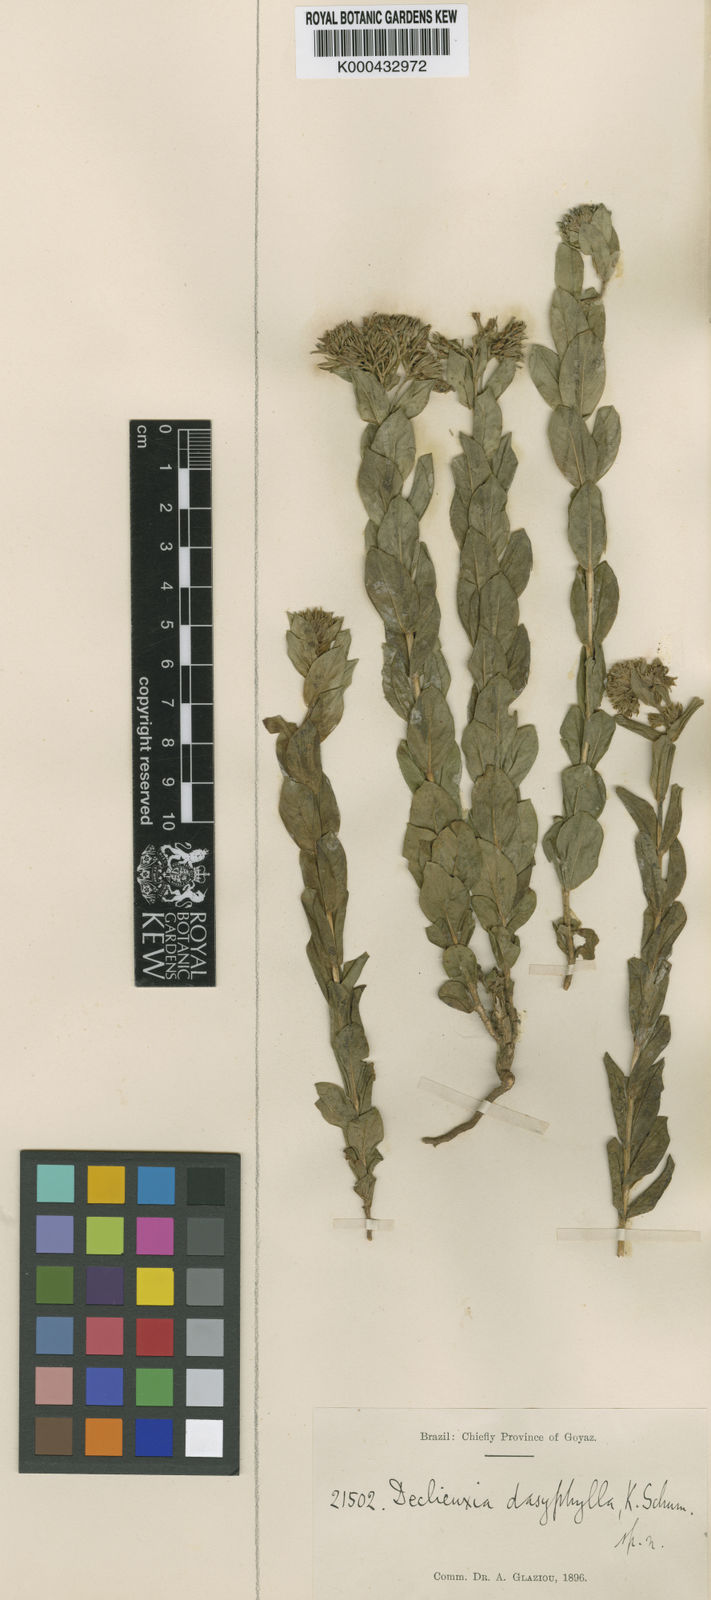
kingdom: Plantae
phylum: Tracheophyta
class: Magnoliopsida
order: Gentianales
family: Rubiaceae
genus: Declieuxia
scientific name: Declieuxia dasyphylla
